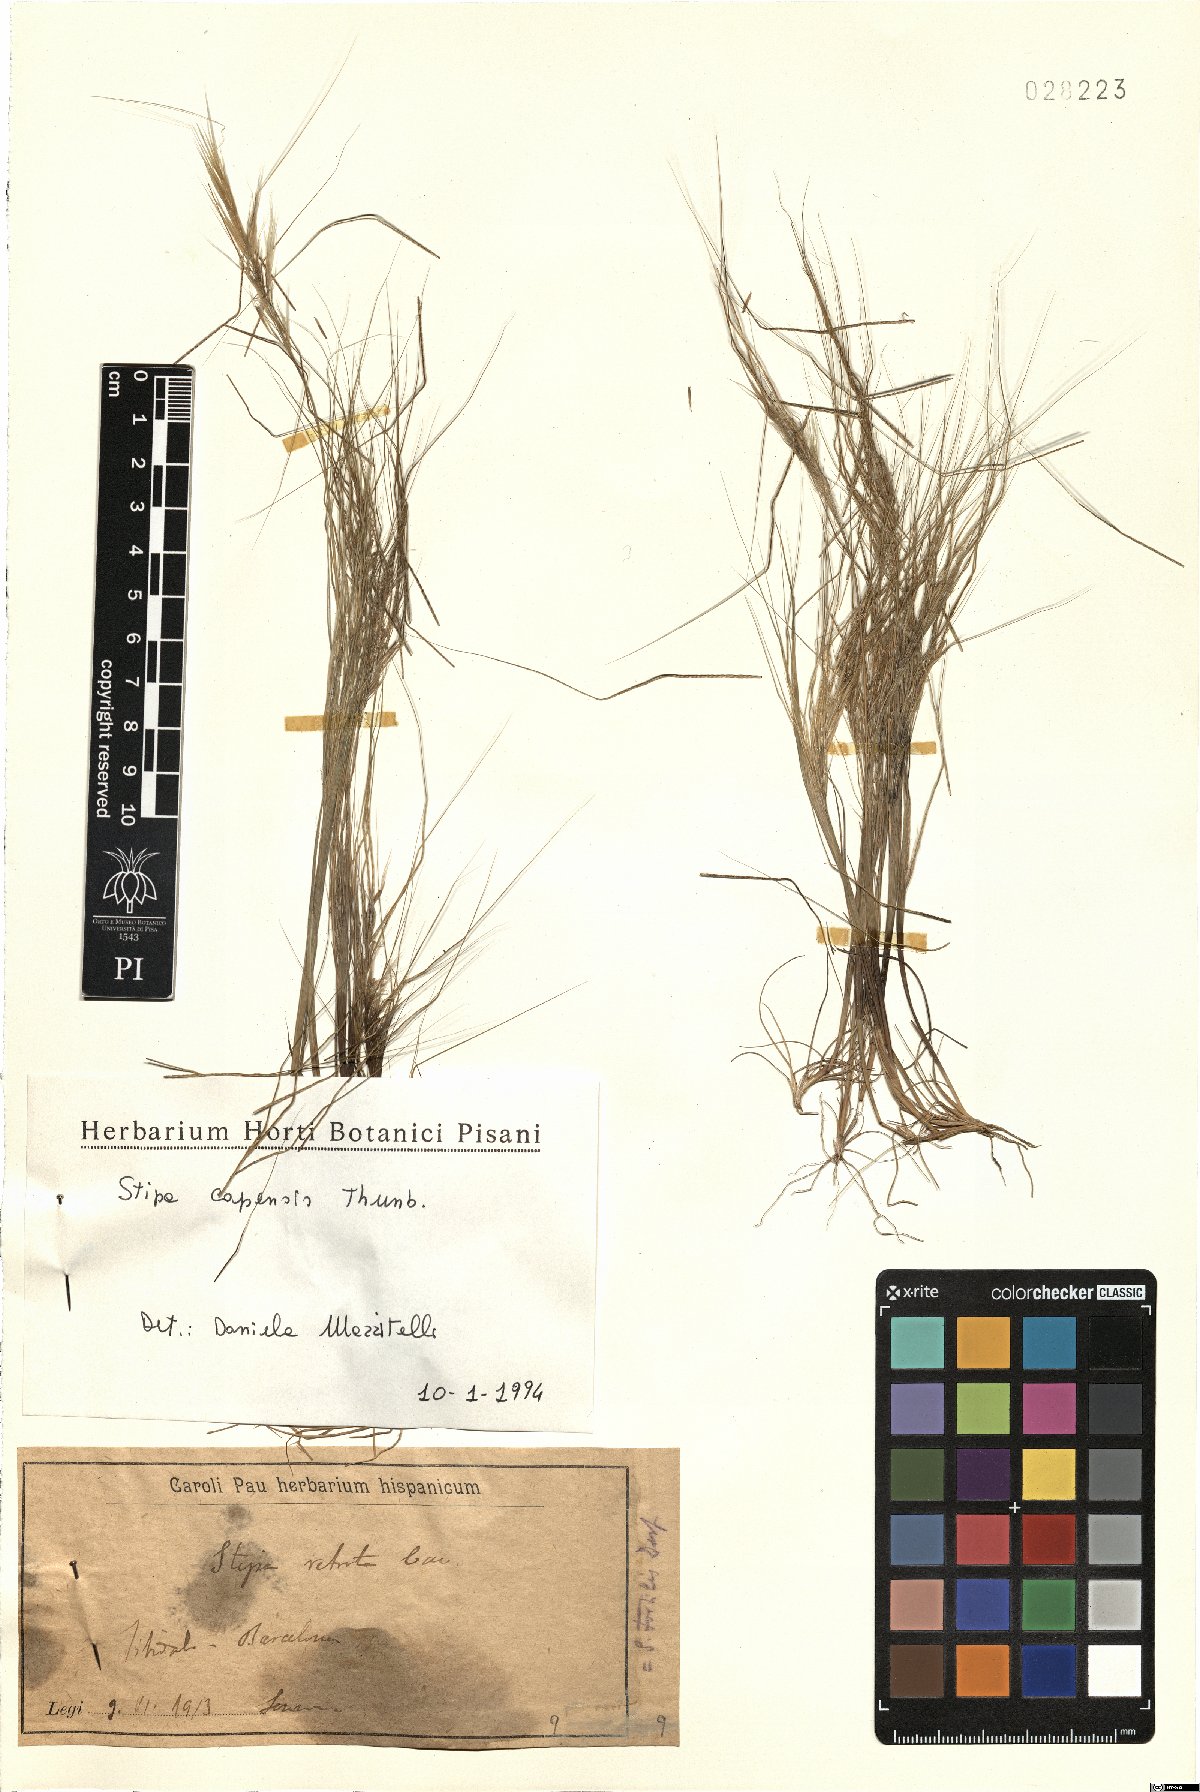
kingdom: Plantae
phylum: Tracheophyta
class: Liliopsida
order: Poales
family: Poaceae
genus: Stipellula
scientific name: Stipellula capensis
